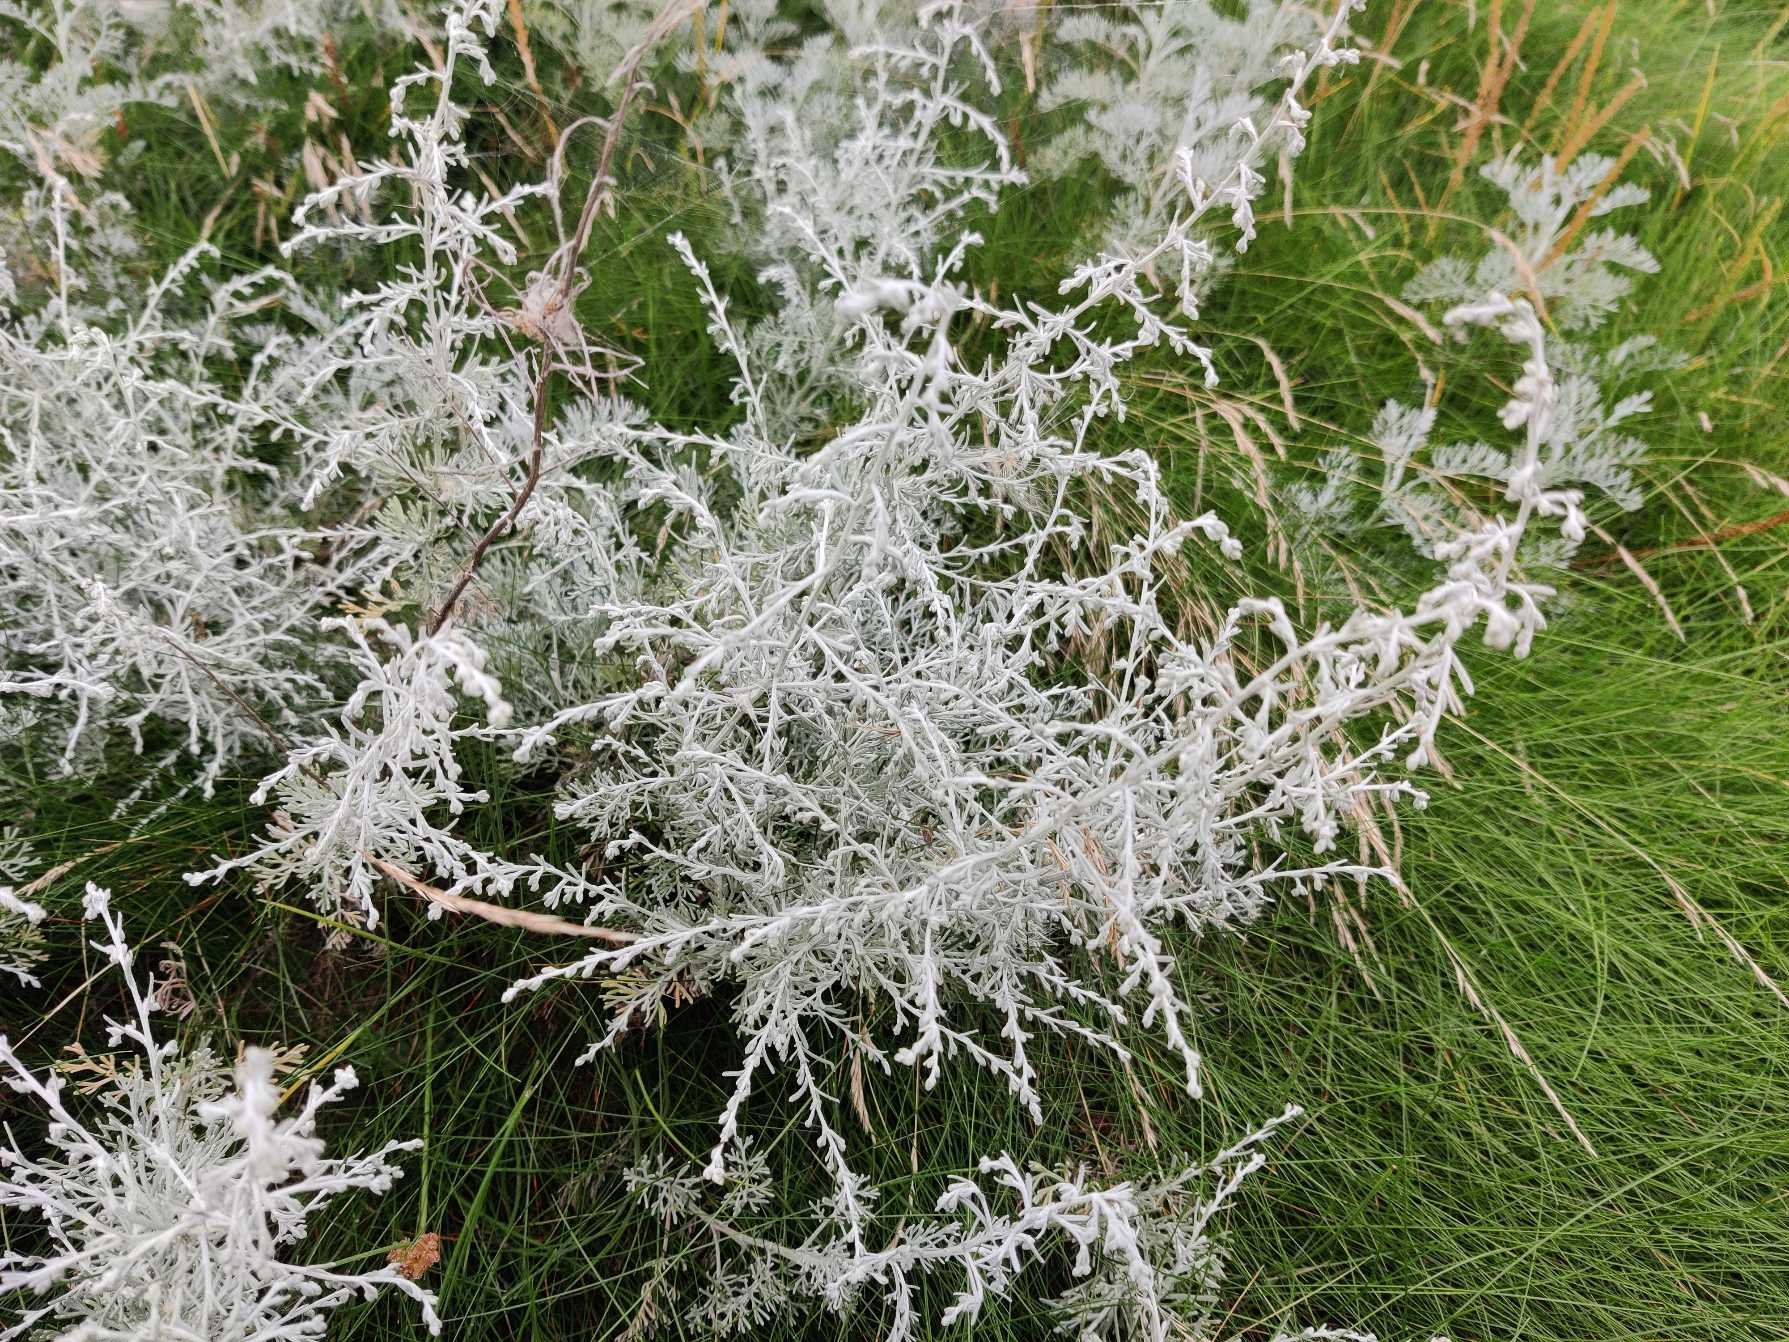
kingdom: Plantae
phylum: Tracheophyta
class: Magnoliopsida
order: Asterales
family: Asteraceae
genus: Artemisia
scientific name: Artemisia maritima
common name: Strandmalurt
